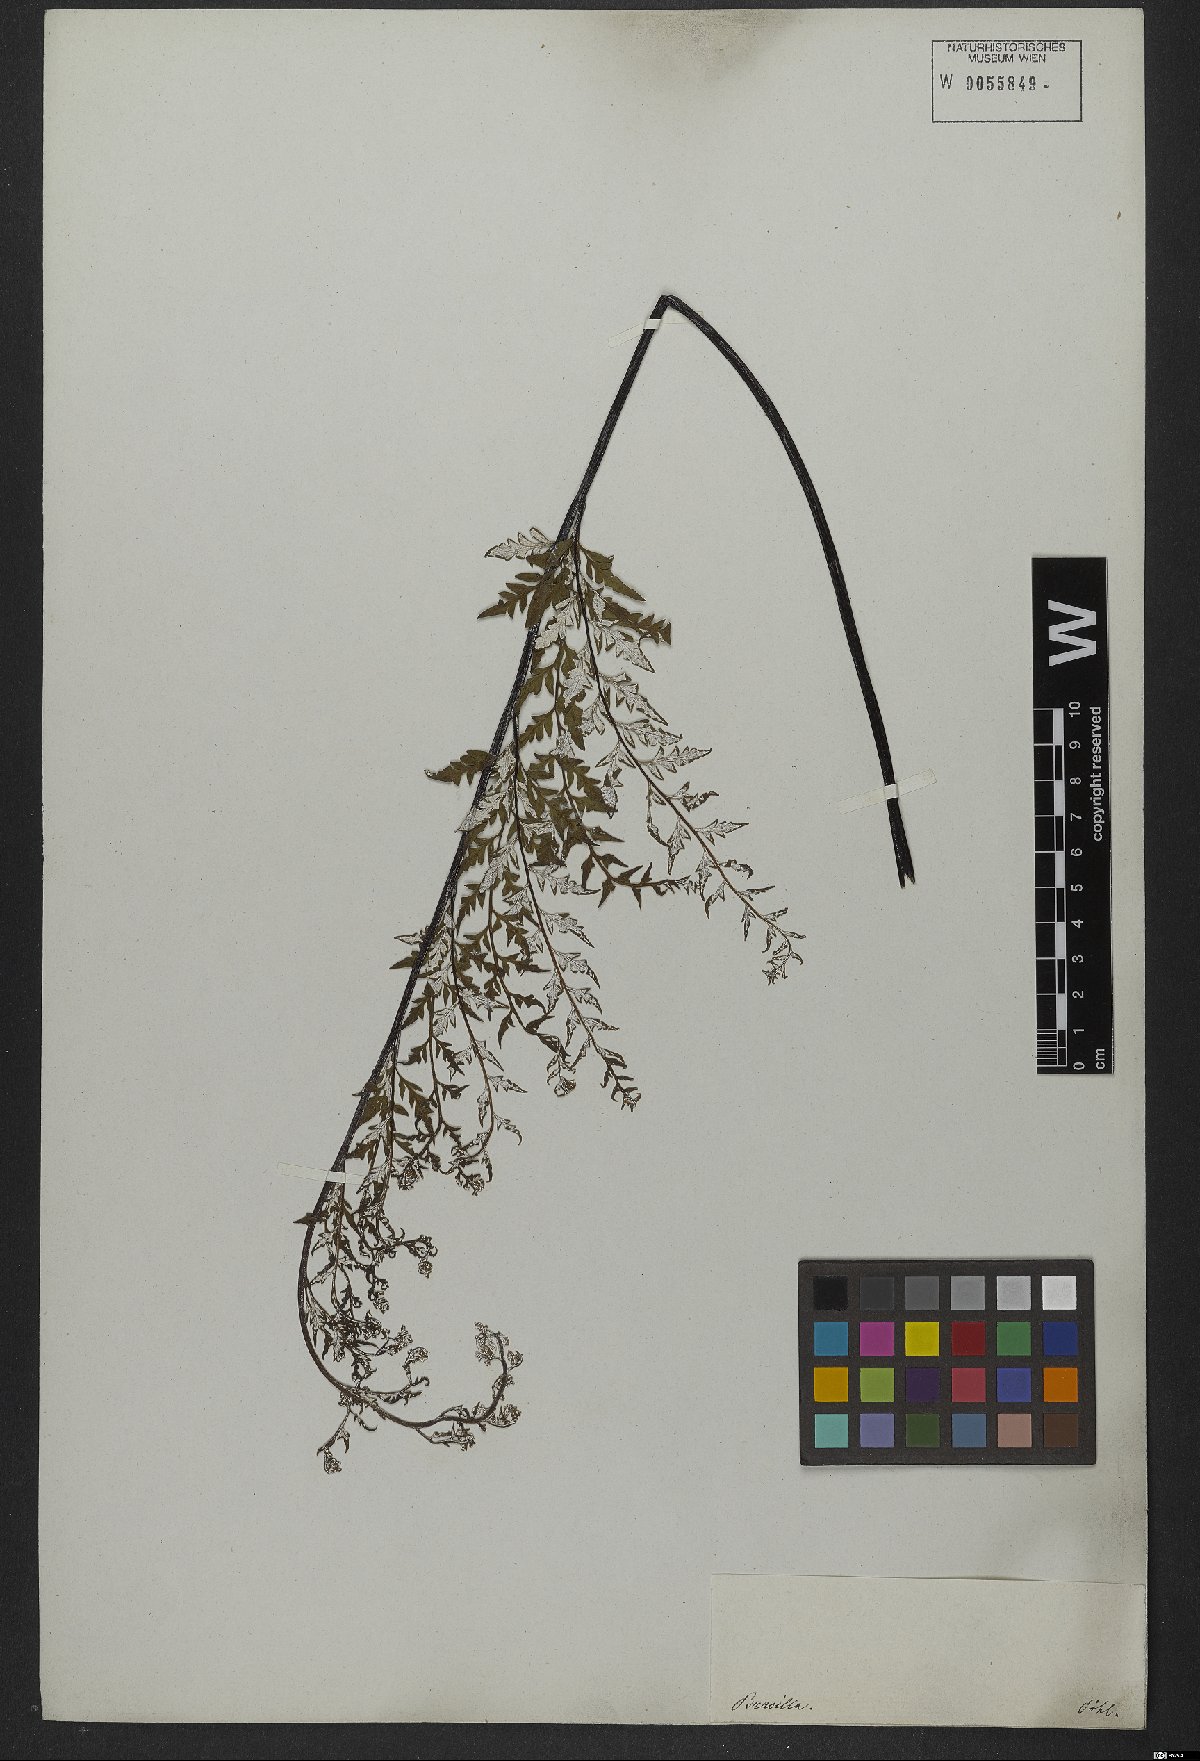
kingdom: Plantae
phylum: Tracheophyta
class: Polypodiopsida
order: Polypodiales
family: Pteridaceae
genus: Pityrogramma
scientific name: Pityrogramma calomelanos
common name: Dixie silverback fern
